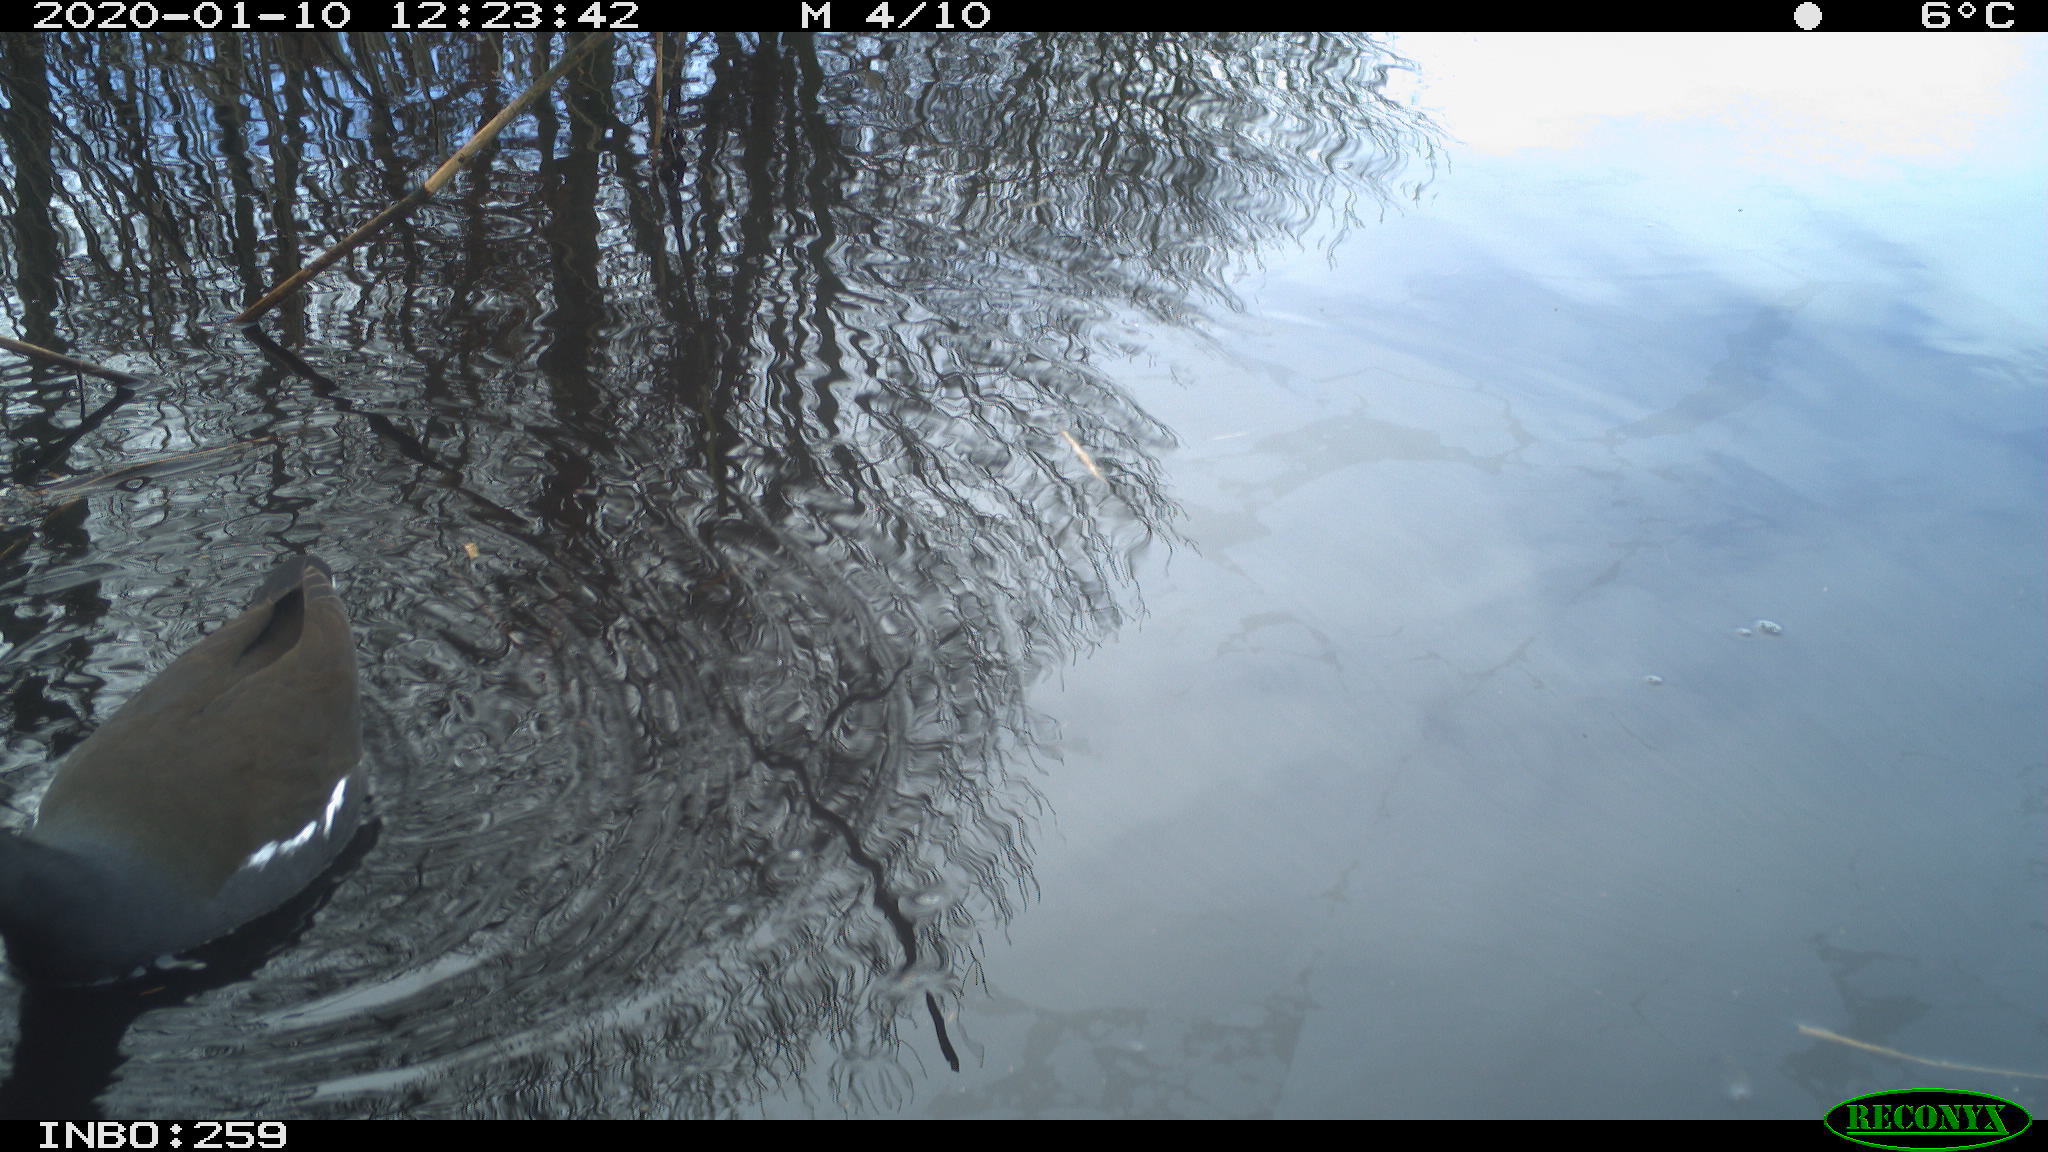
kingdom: Animalia
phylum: Chordata
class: Aves
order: Gruiformes
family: Rallidae
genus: Gallinula
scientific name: Gallinula chloropus
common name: Common moorhen
